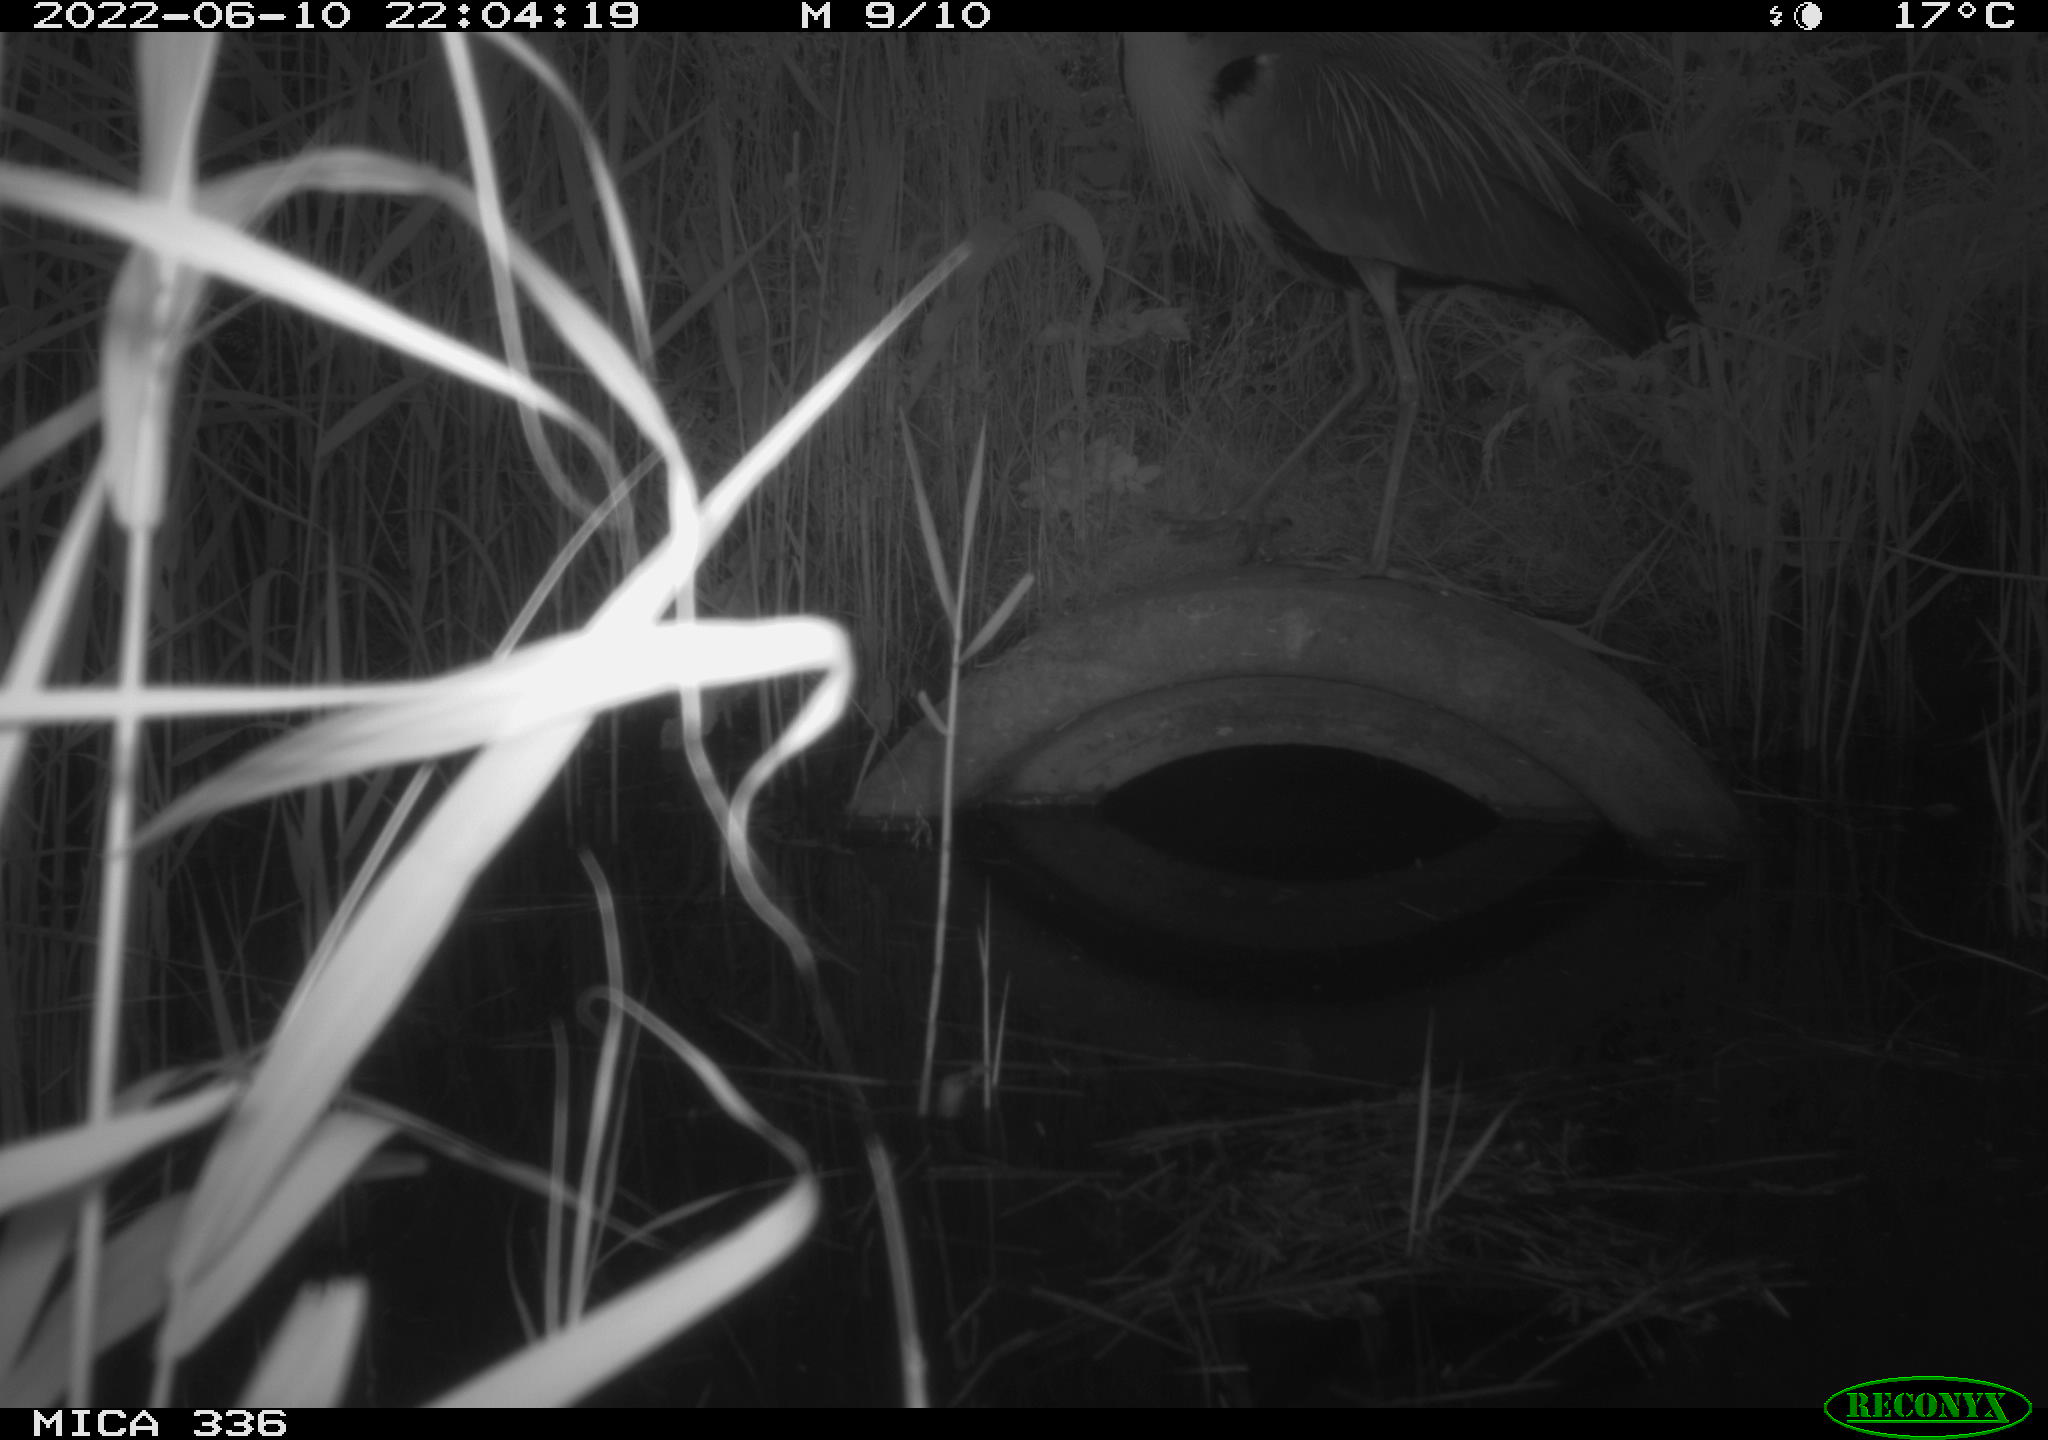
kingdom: Animalia
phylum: Chordata
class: Aves
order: Pelecaniformes
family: Ardeidae
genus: Ardea
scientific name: Ardea
